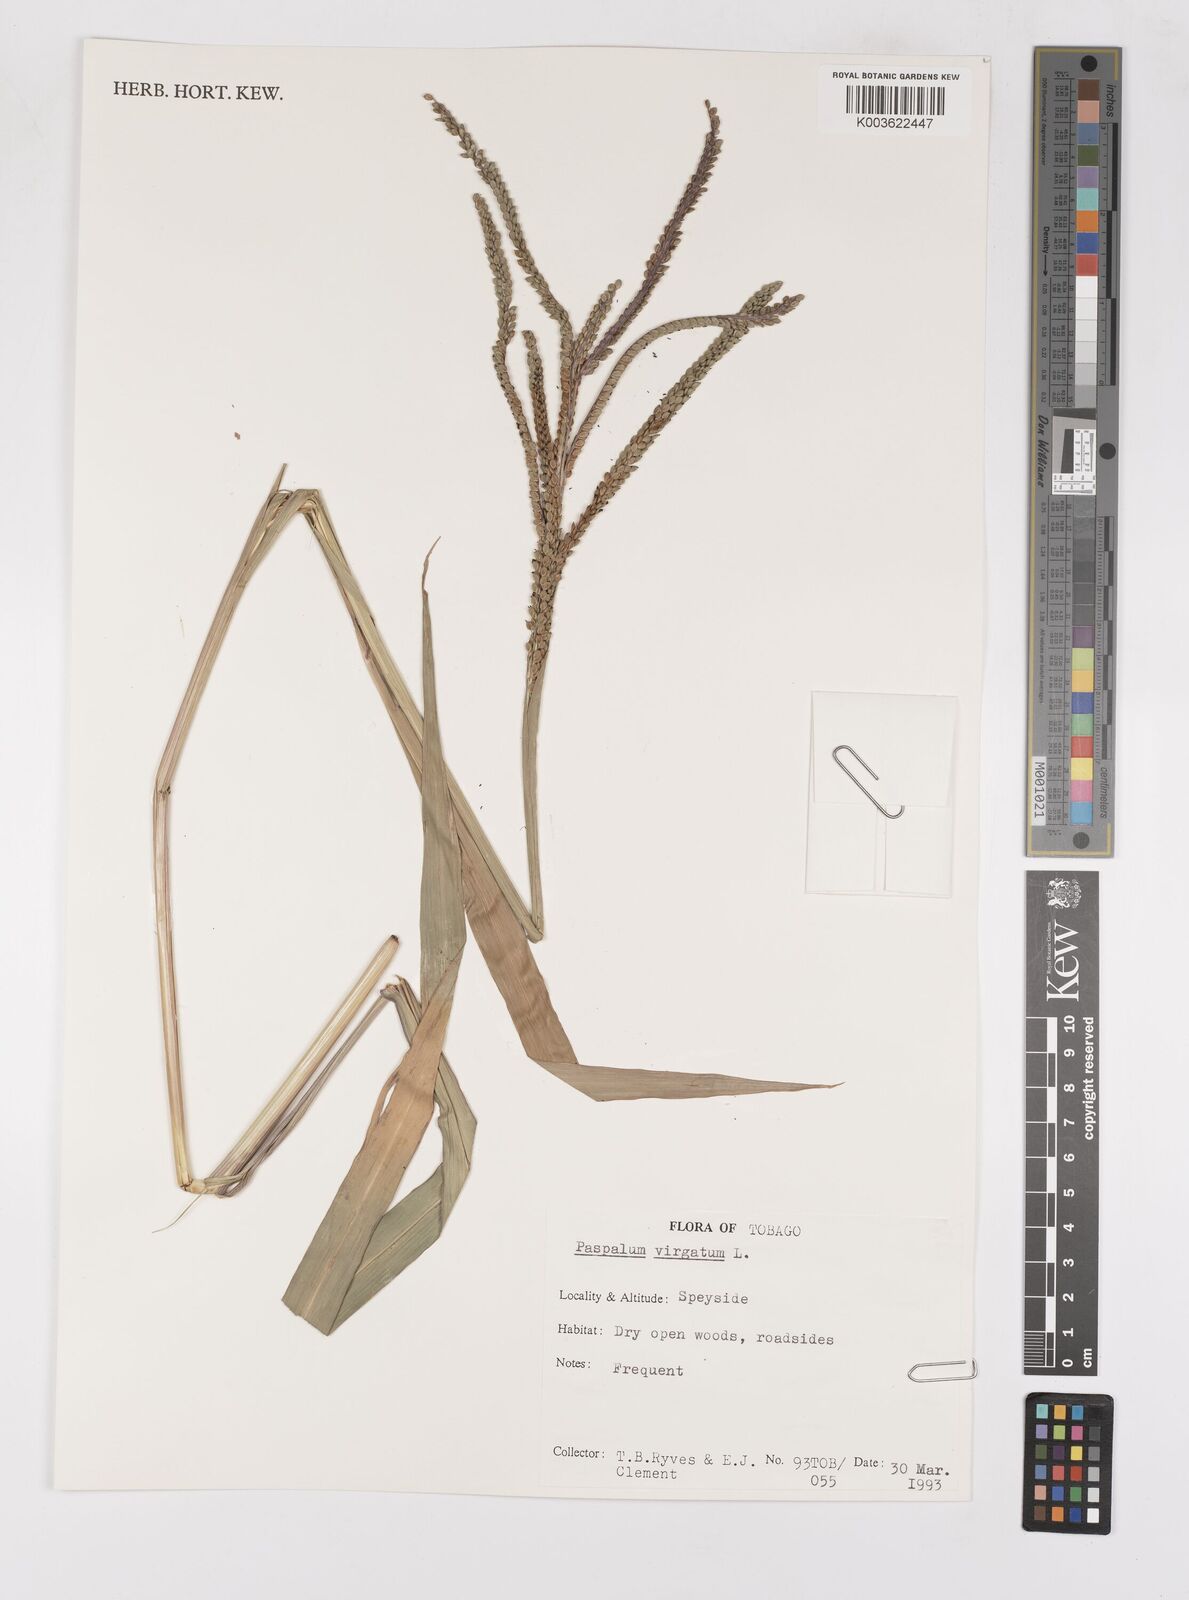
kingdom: Plantae
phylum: Tracheophyta
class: Liliopsida
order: Poales
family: Poaceae
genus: Paspalum
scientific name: Paspalum virgatum
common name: Talquezal
